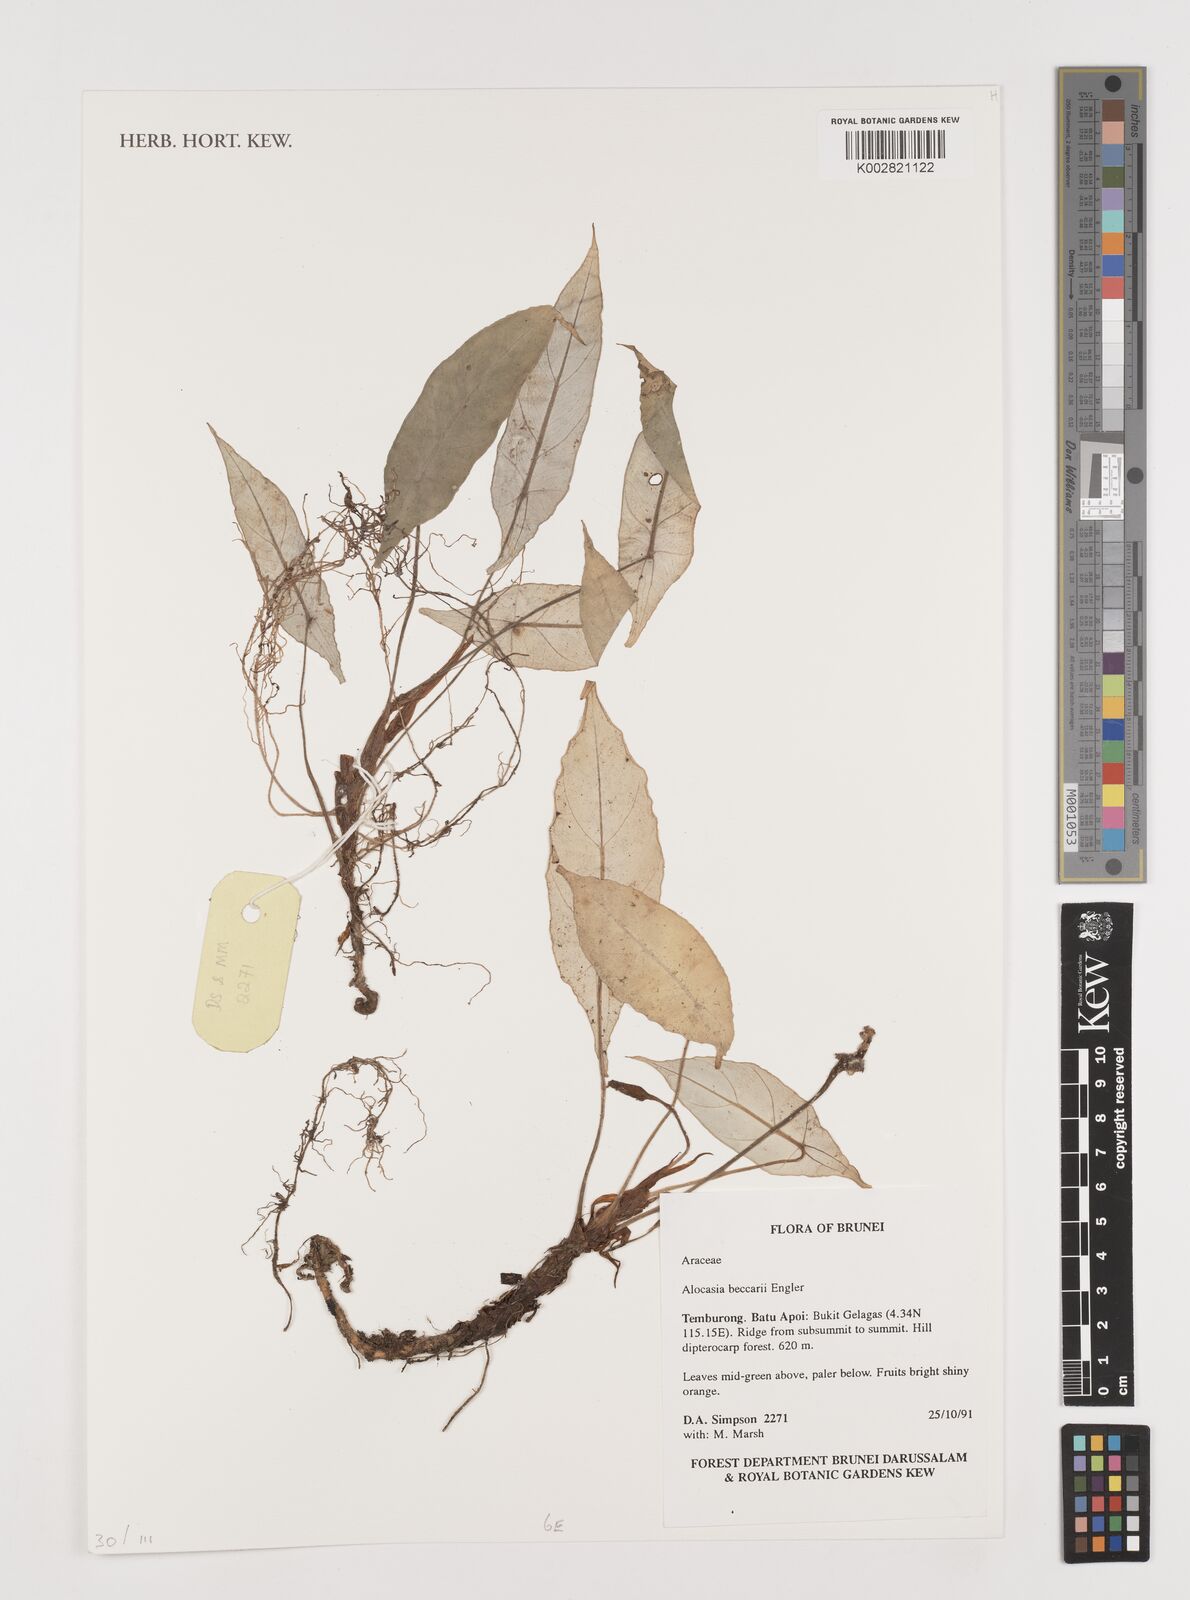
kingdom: Plantae
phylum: Tracheophyta
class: Liliopsida
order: Alismatales
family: Araceae
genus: Alocasia
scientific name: Alocasia beccarii
